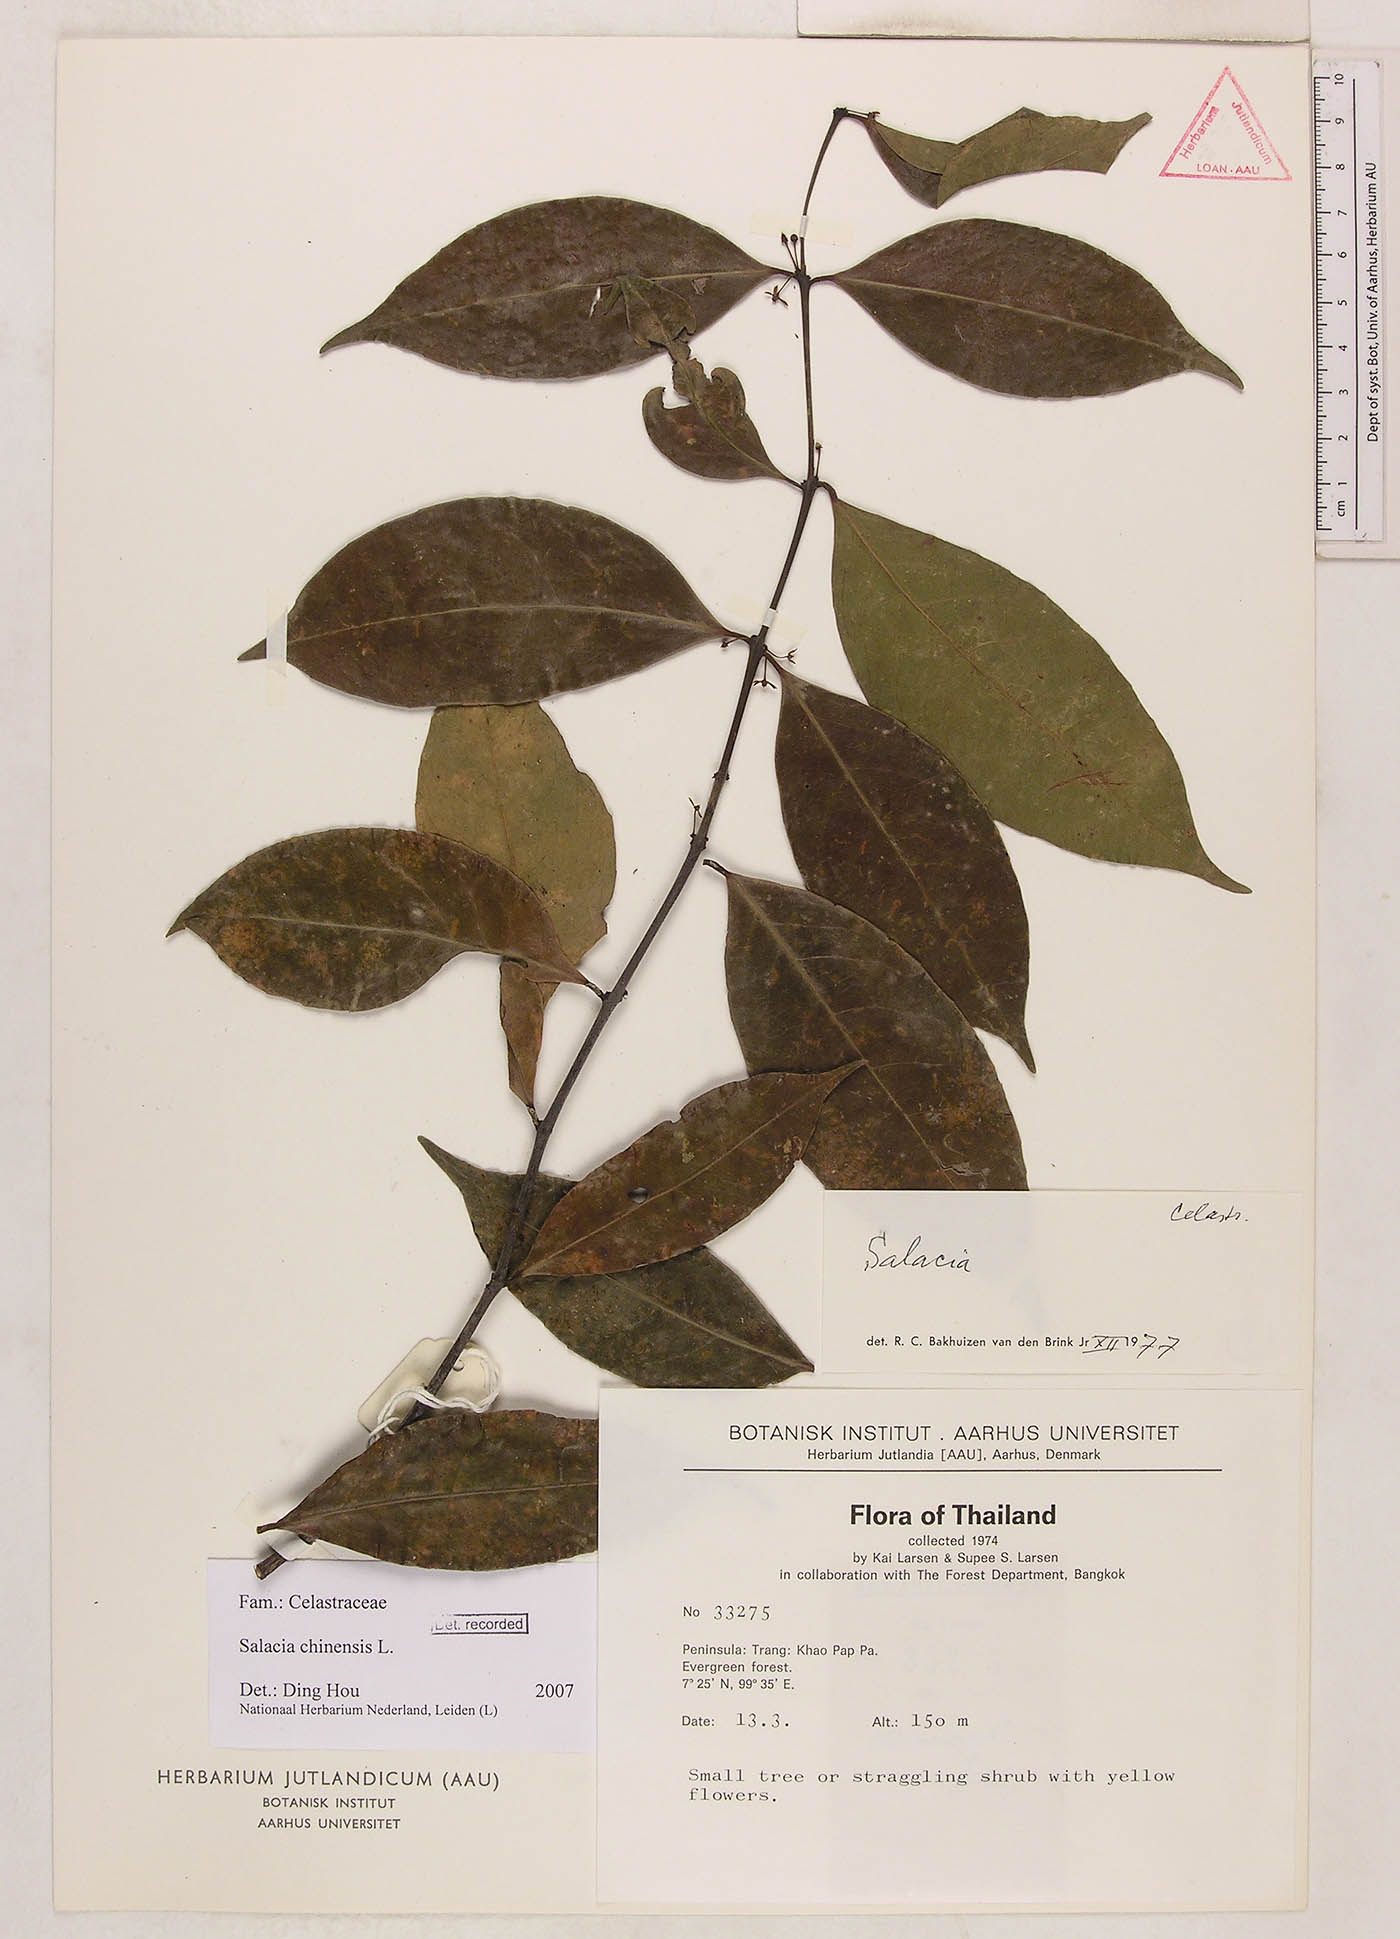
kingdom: Plantae
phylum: Tracheophyta
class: Magnoliopsida
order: Celastrales
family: Celastraceae
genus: Salacia
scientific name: Salacia chinensis
